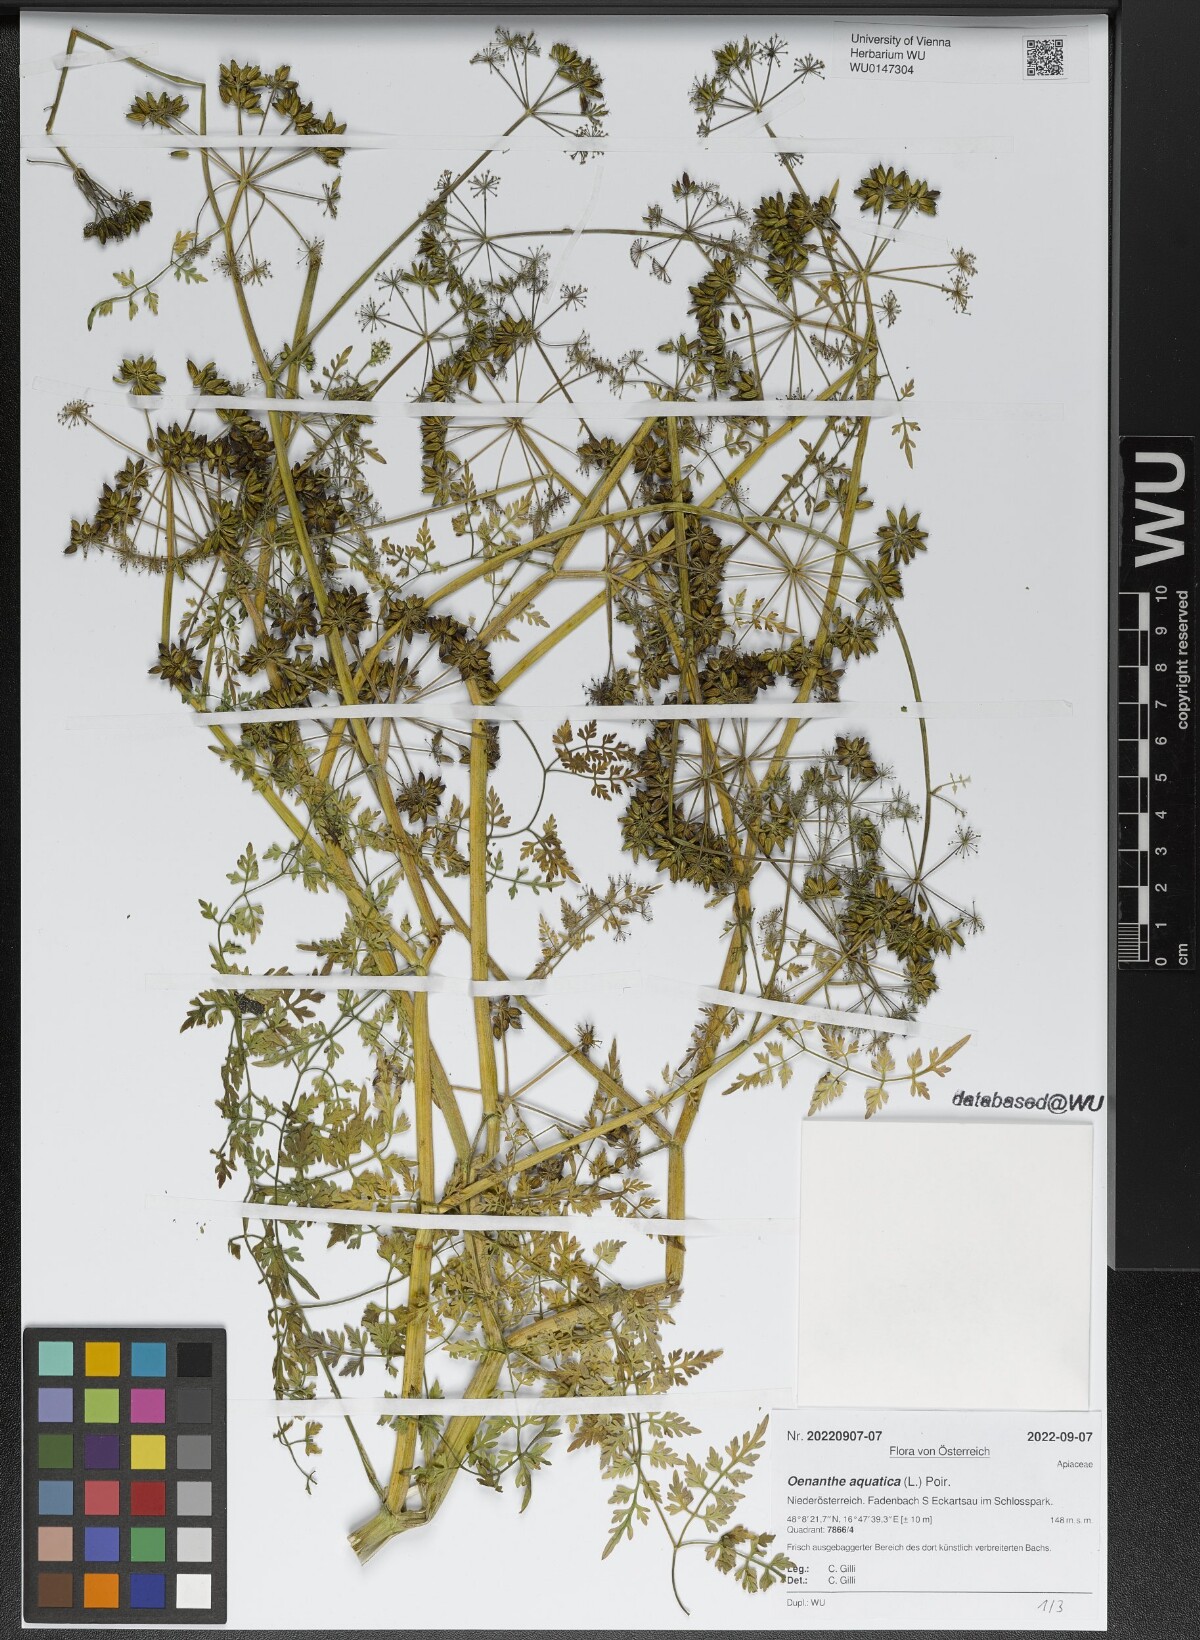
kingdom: Plantae
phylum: Tracheophyta
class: Magnoliopsida
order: Apiales
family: Apiaceae
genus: Oenanthe
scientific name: Oenanthe aquatica
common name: Fine-leaved water-dropwort
